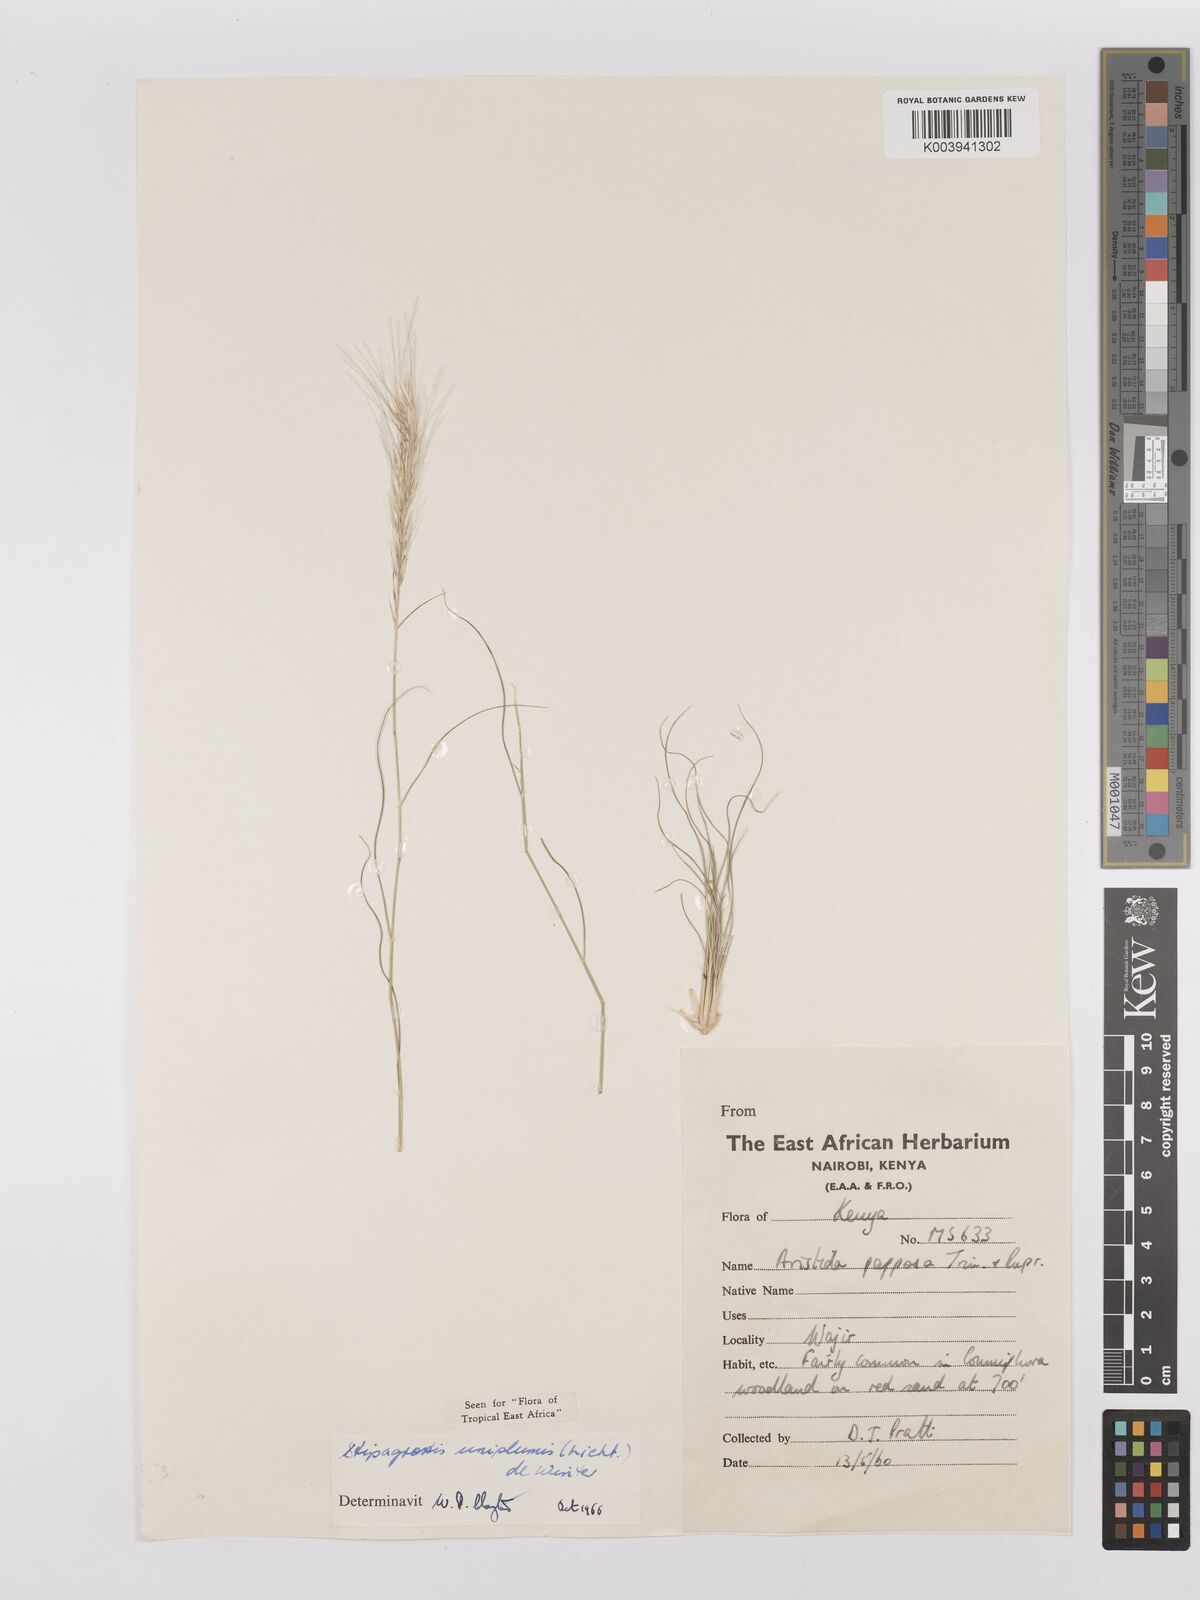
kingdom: Plantae
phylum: Tracheophyta
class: Liliopsida
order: Poales
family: Poaceae
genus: Stipagrostis
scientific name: Stipagrostis uniplumis
